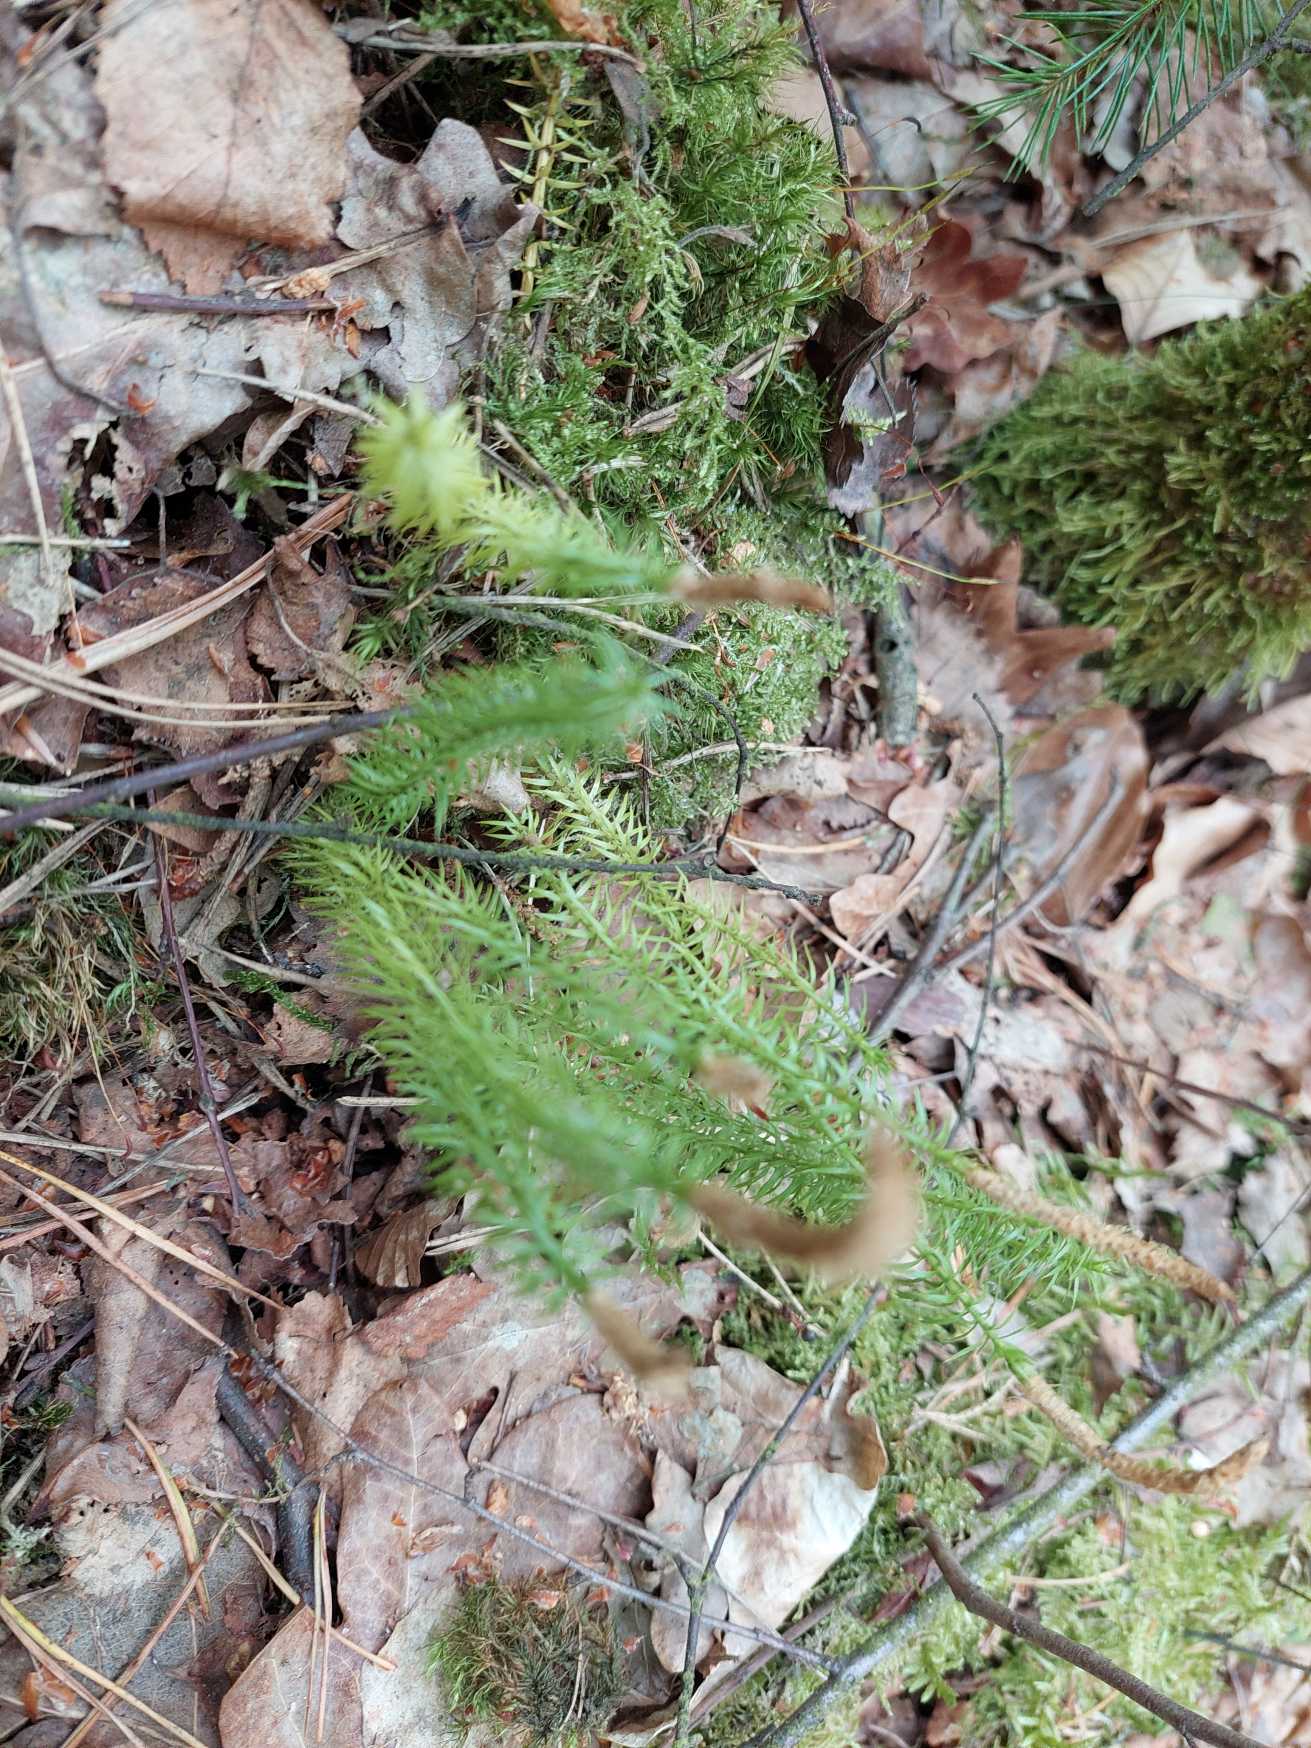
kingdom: Plantae
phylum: Tracheophyta
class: Lycopodiopsida
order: Lycopodiales
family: Lycopodiaceae
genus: Spinulum
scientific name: Spinulum annotinum
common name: Femradet ulvefod
